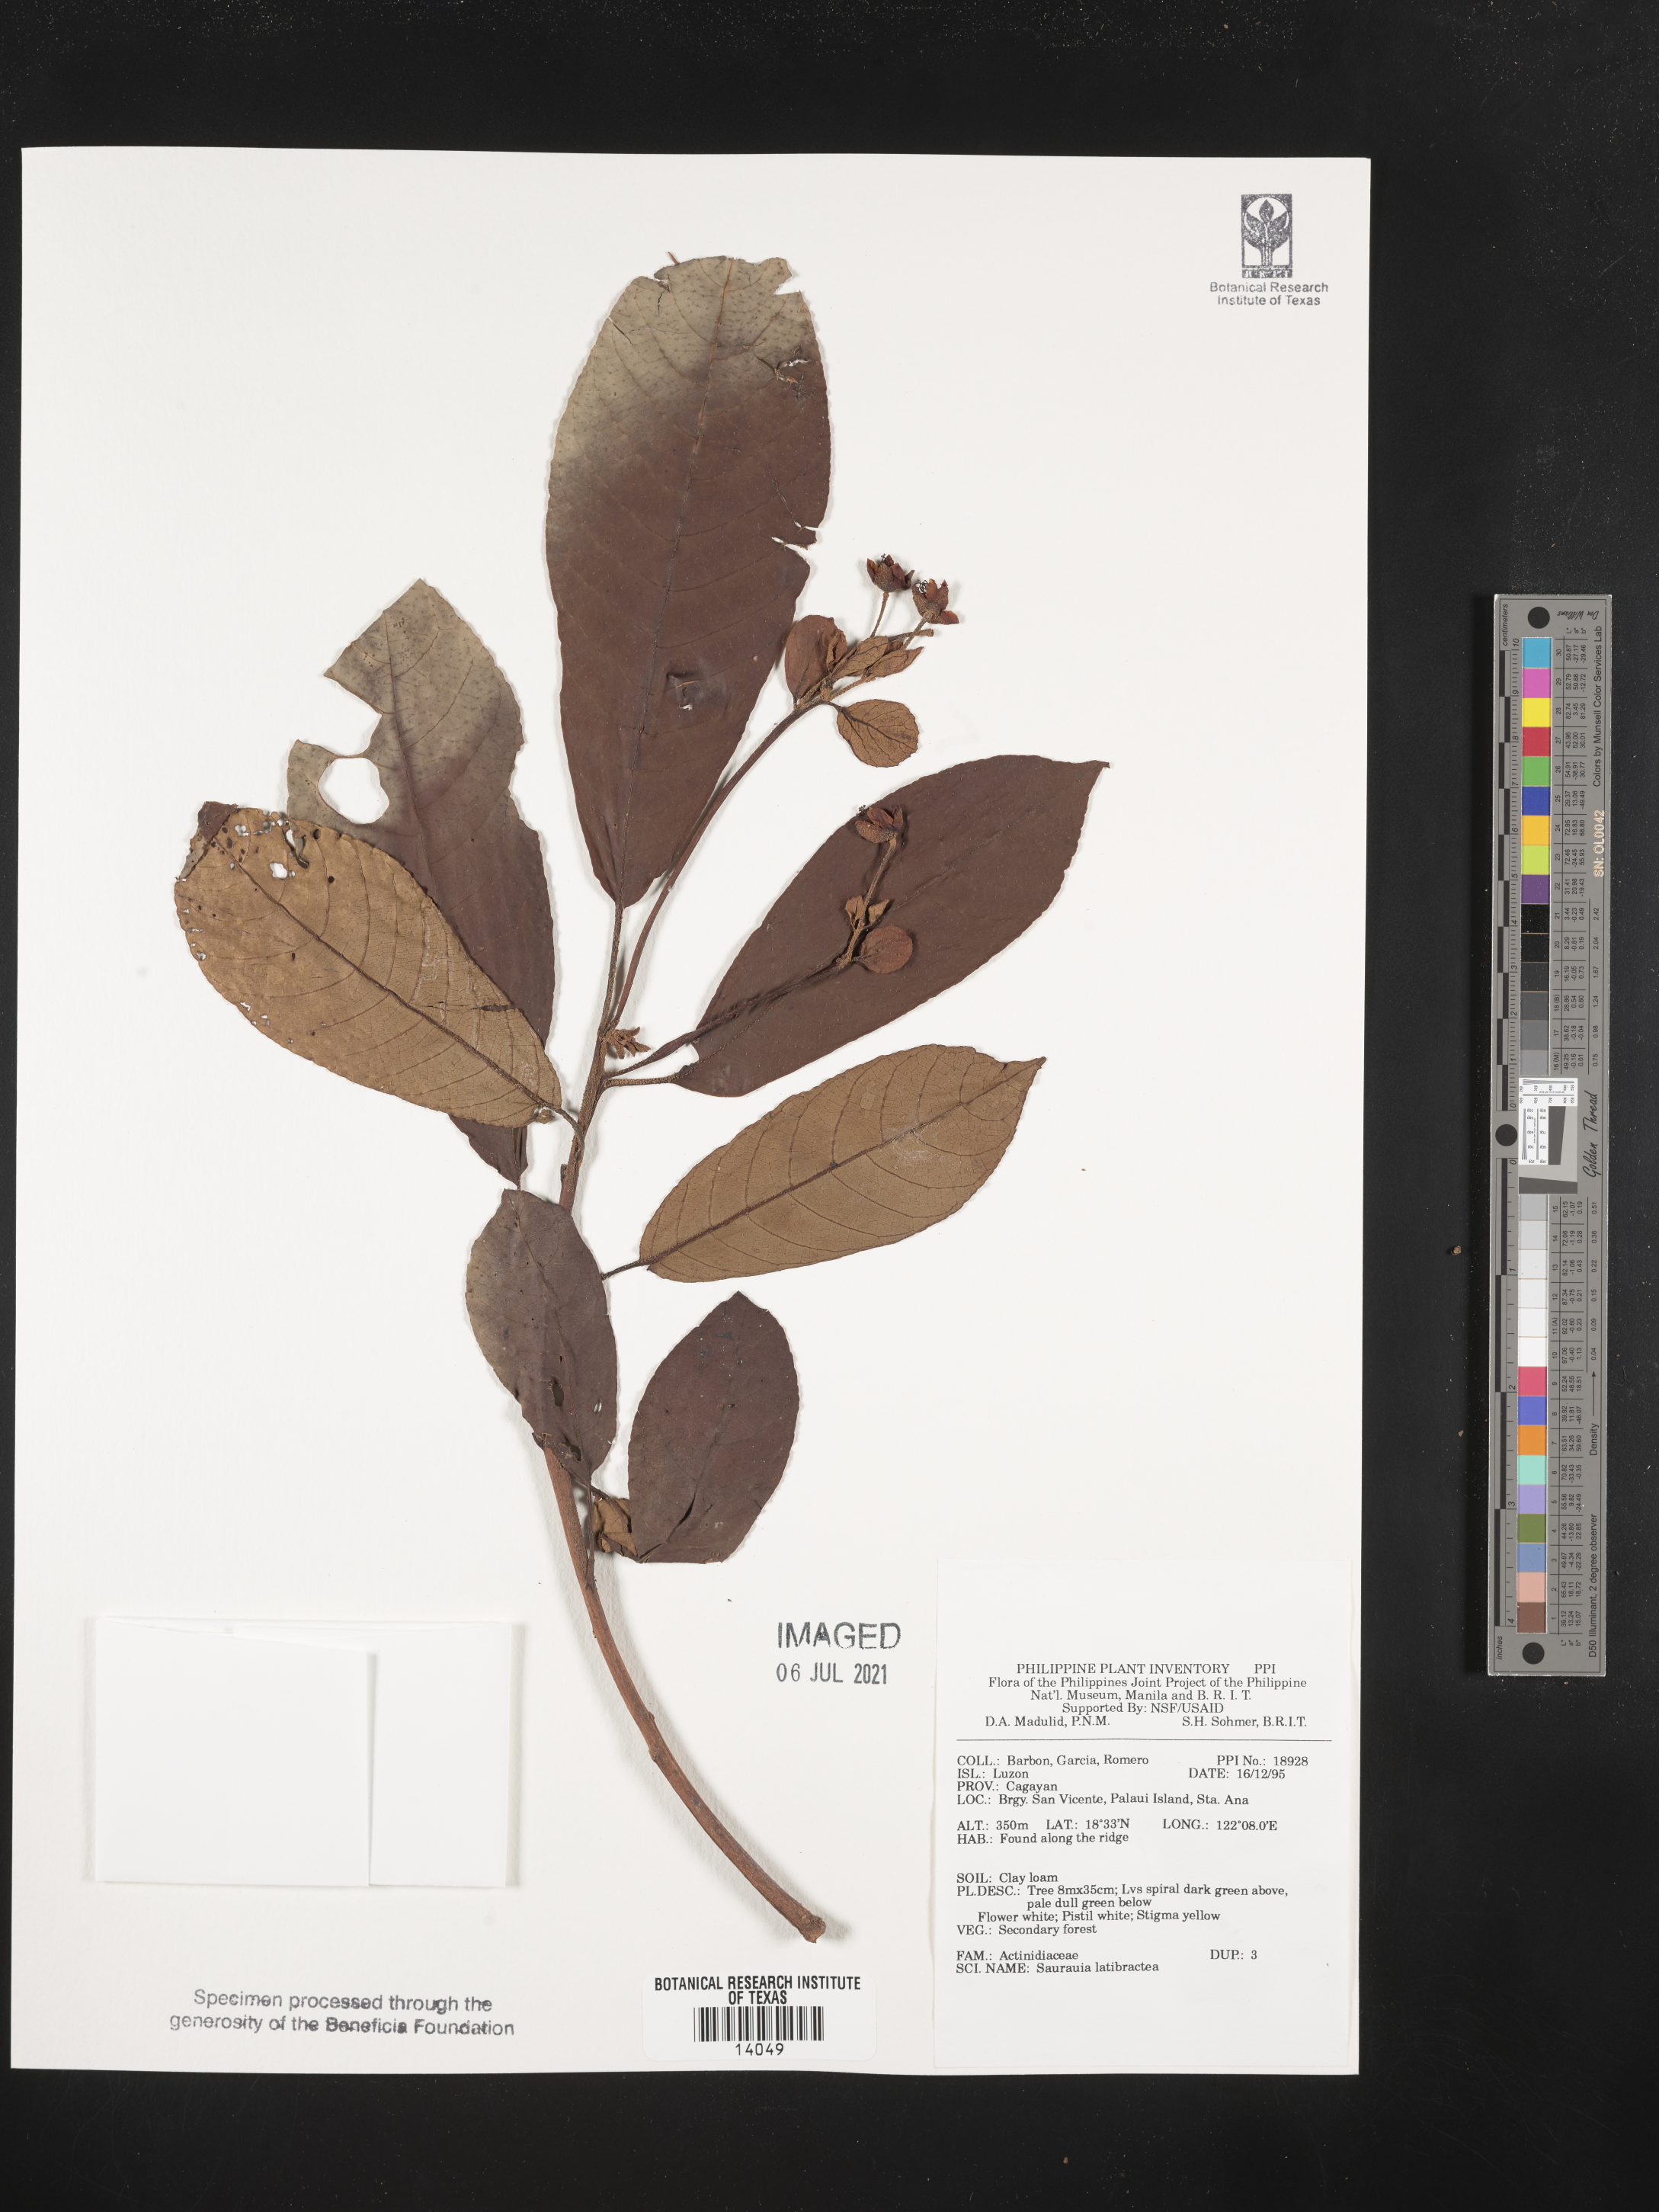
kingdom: Plantae
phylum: Tracheophyta
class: Magnoliopsida
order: Ericales
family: Actinidiaceae
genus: Saurauia
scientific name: Saurauia latibractea
